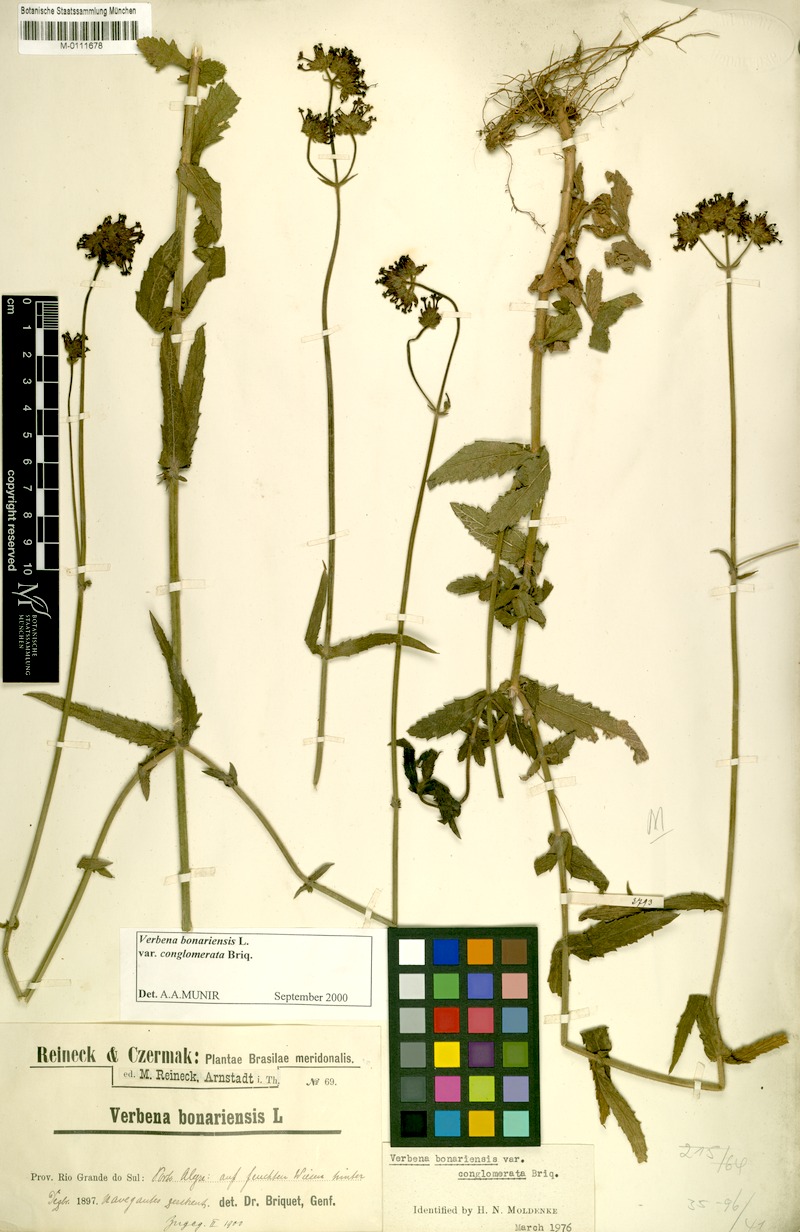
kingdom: Plantae
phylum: Tracheophyta
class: Magnoliopsida
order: Lamiales
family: Verbenaceae
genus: Verbena
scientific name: Verbena bonariensis
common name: Purpletop vervain
